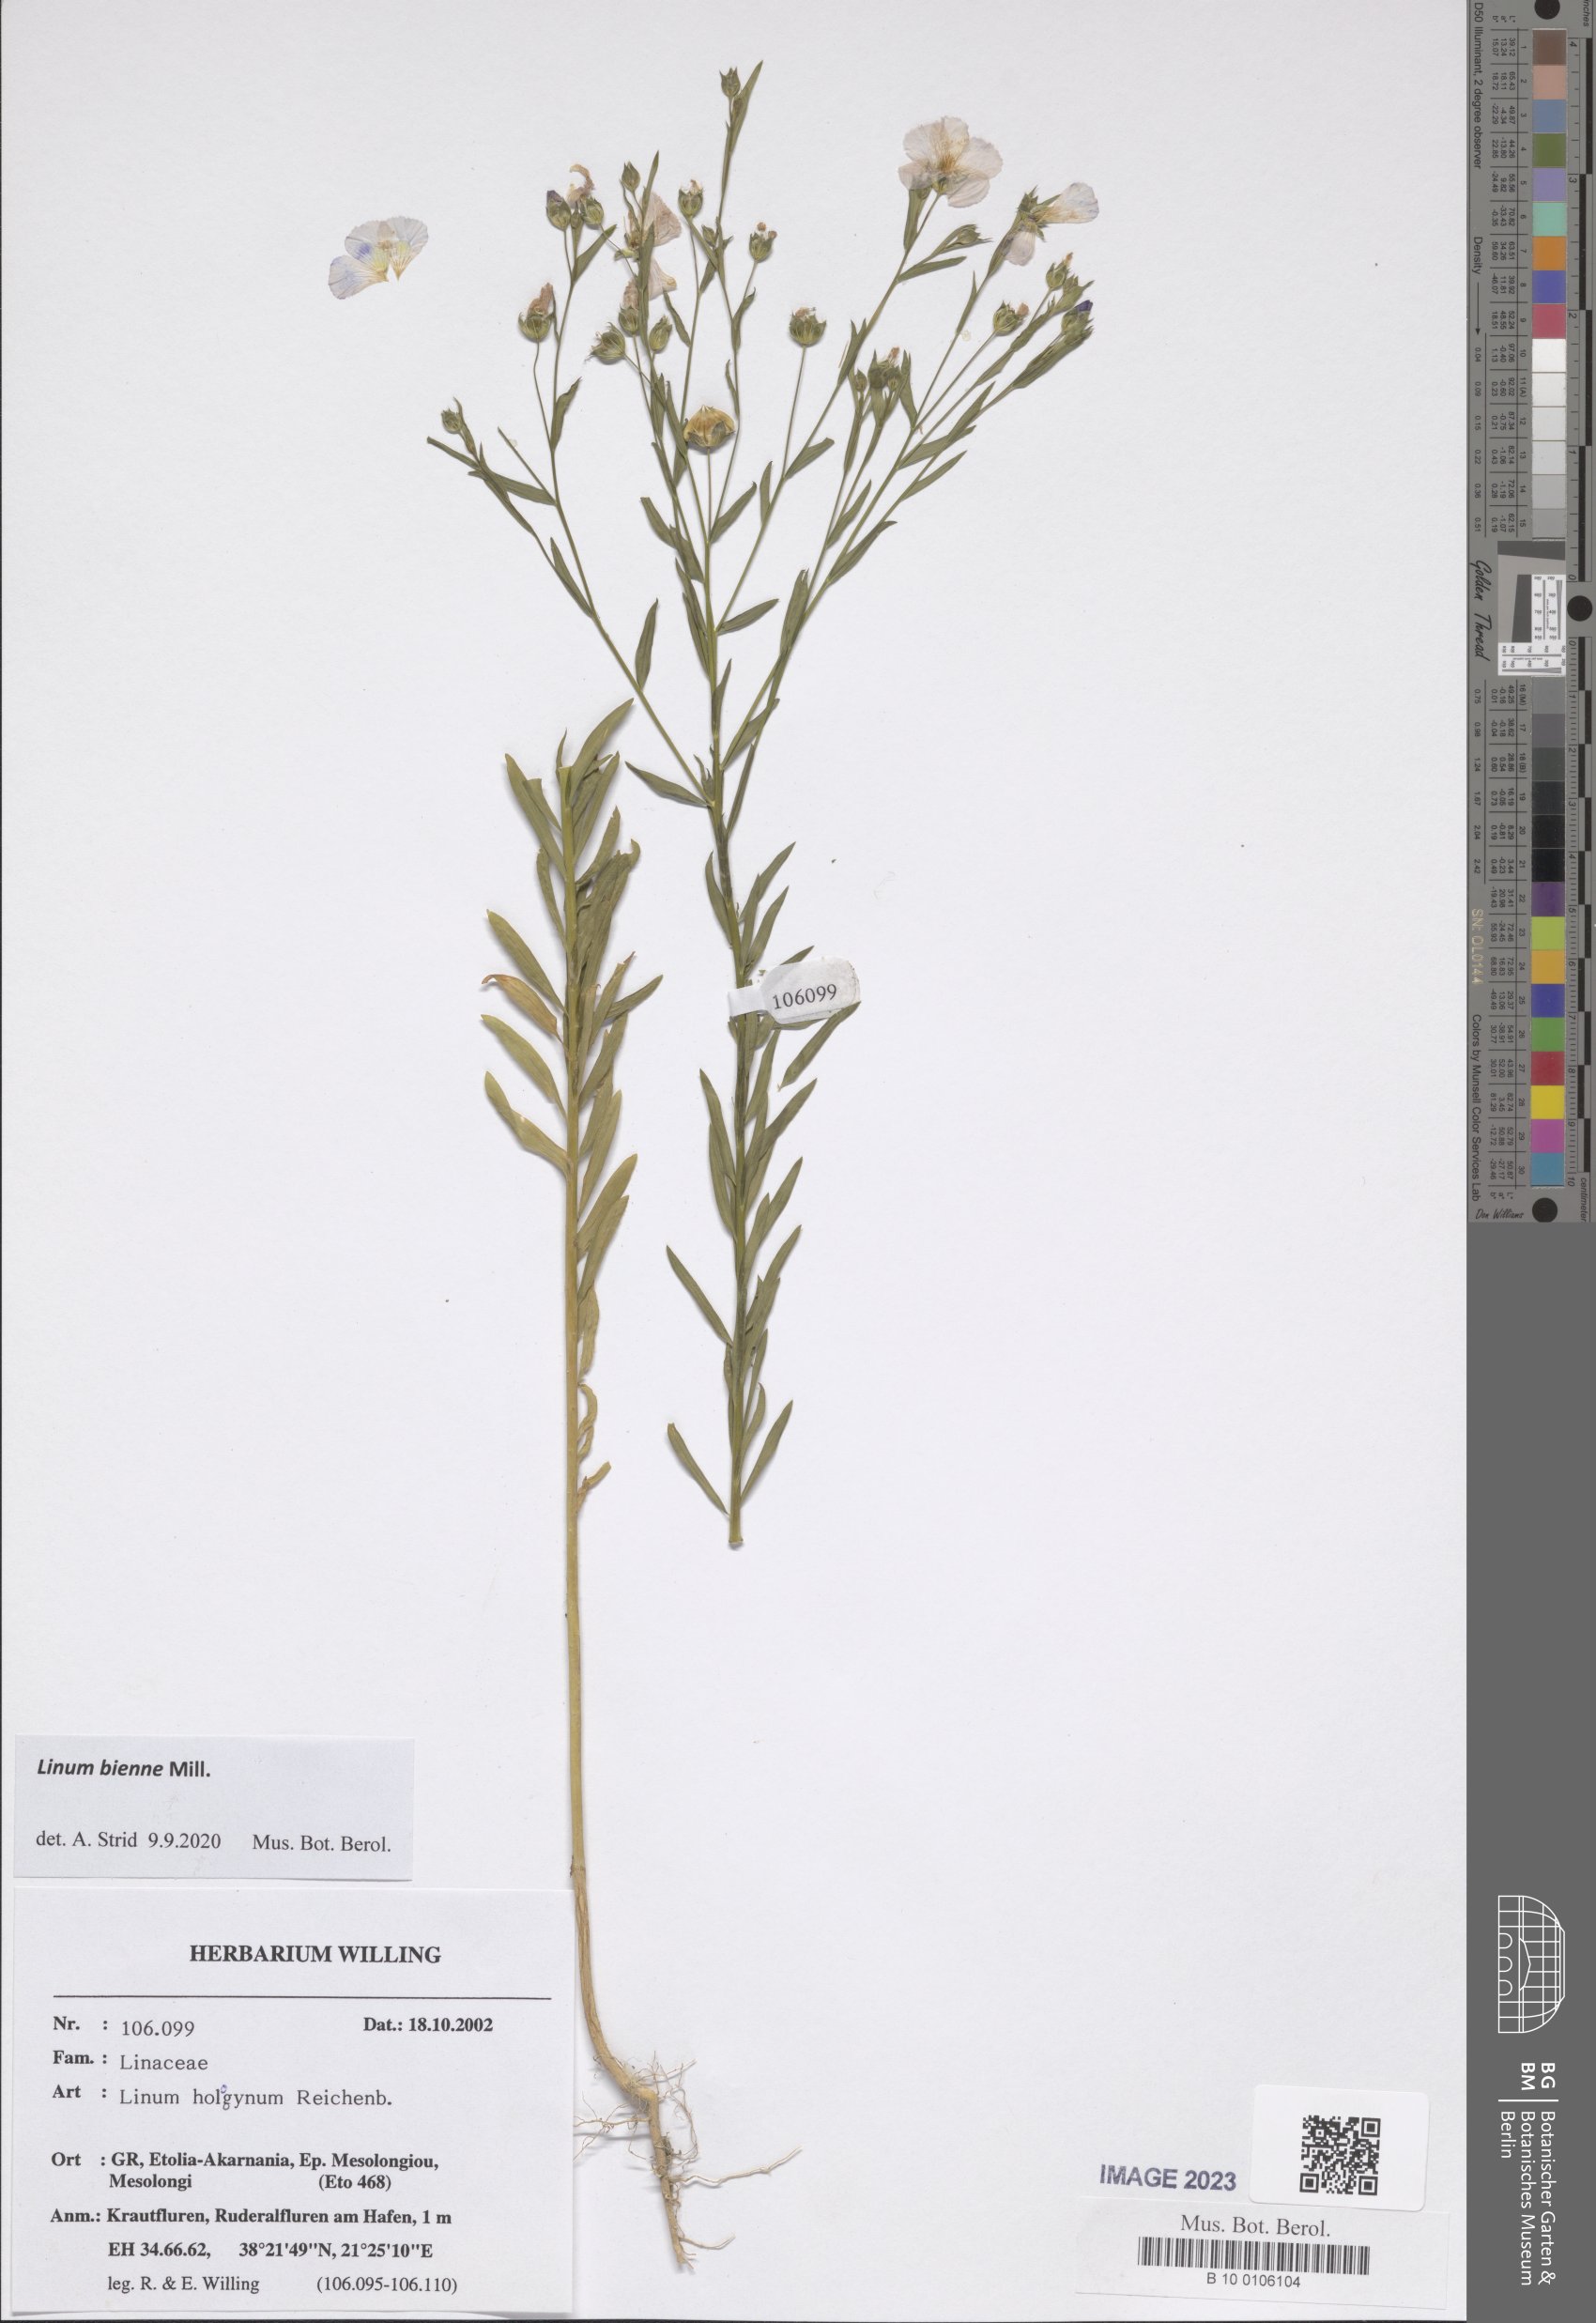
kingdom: Plantae
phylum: Tracheophyta
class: Magnoliopsida
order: Malpighiales
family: Linaceae
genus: Linum
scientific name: Linum bienne
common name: Pale flax
